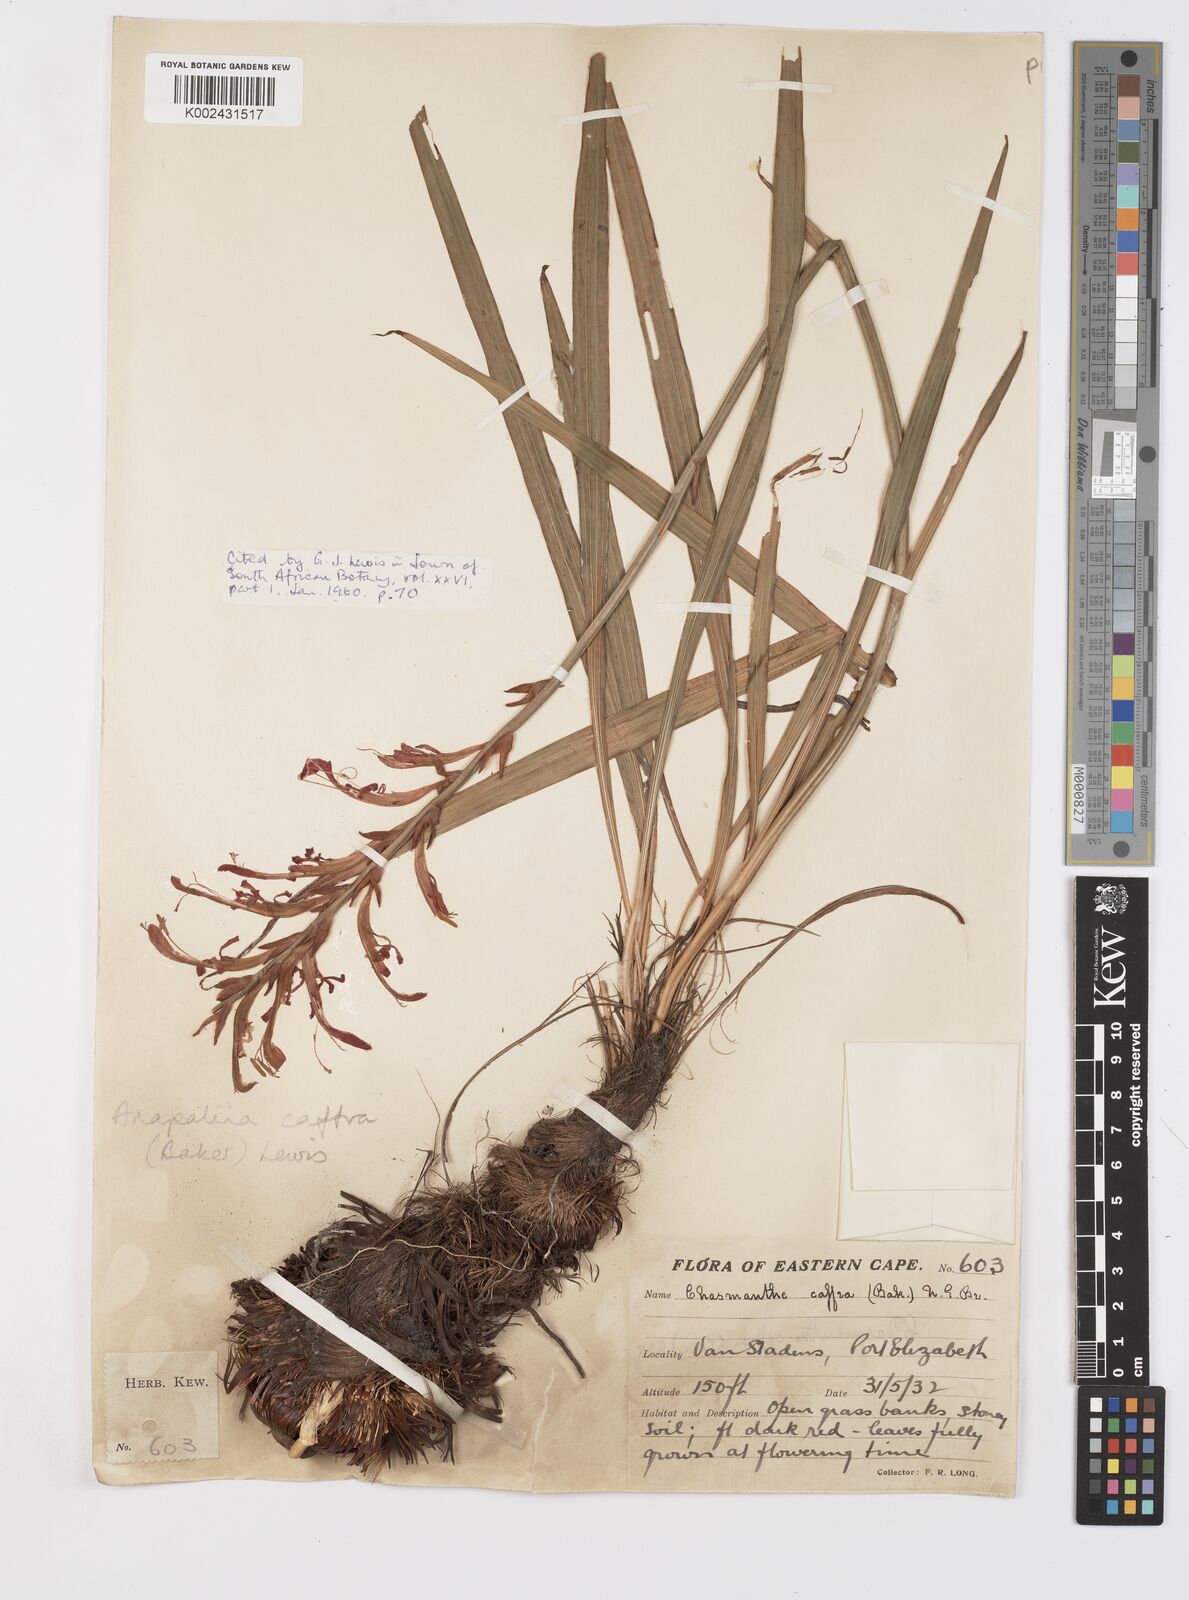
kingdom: Plantae
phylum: Tracheophyta
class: Liliopsida
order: Asparagales
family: Iridaceae
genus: Tritoniopsis
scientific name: Tritoniopsis caffra
